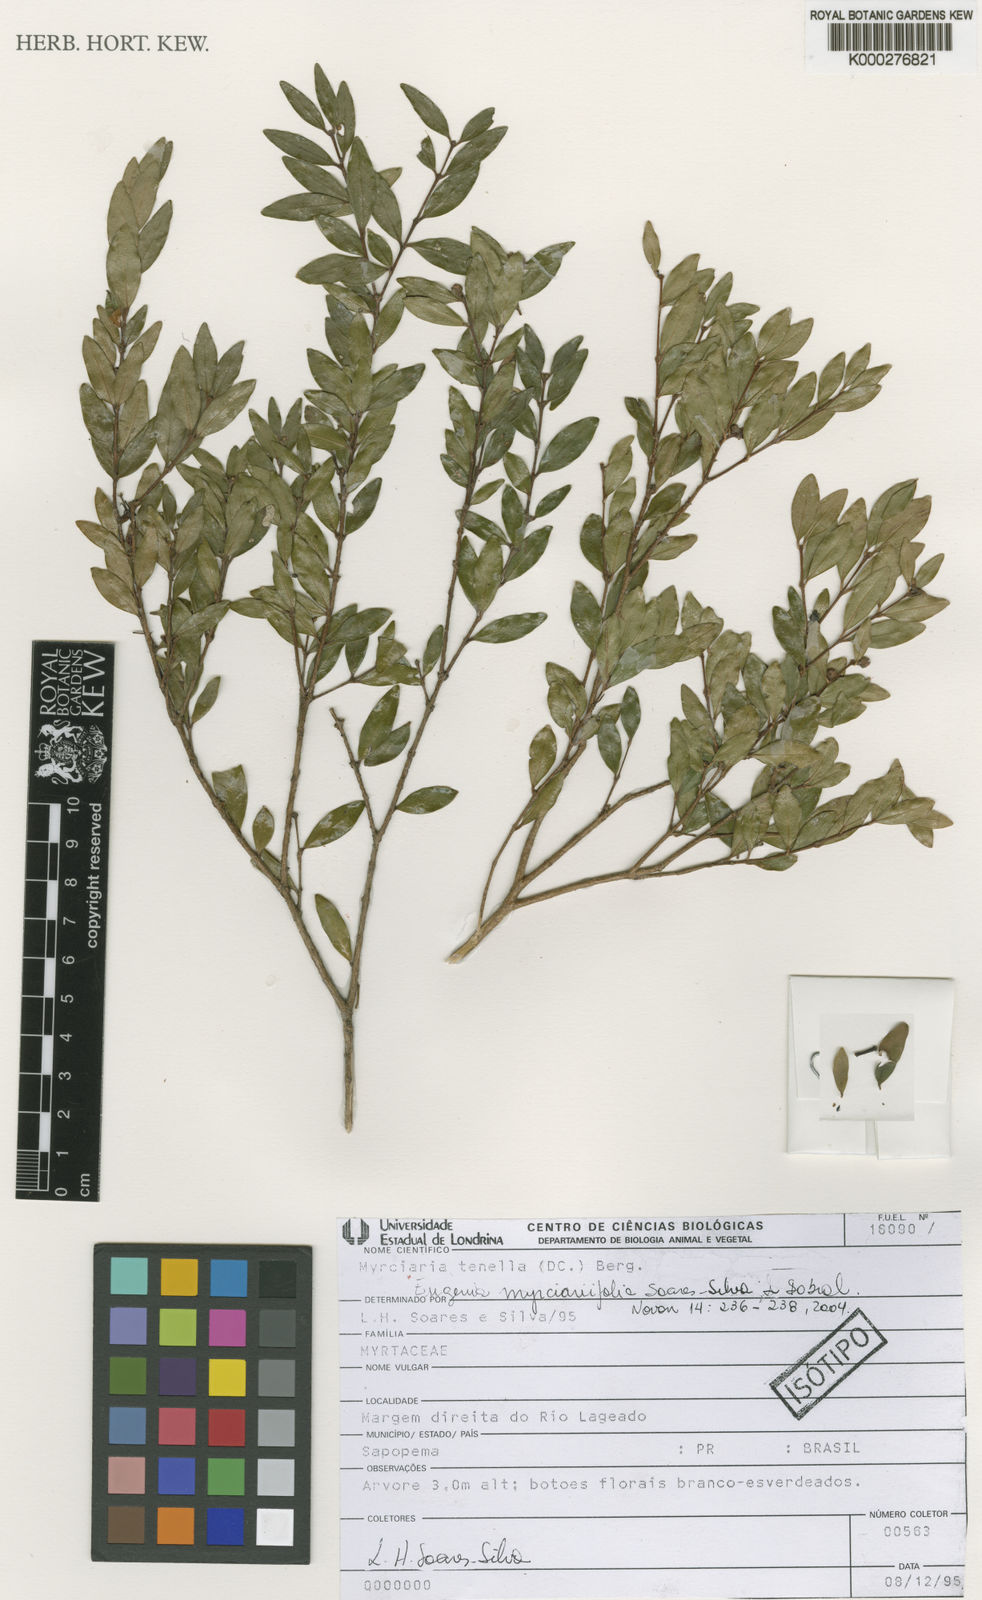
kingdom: Plantae
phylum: Tracheophyta
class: Magnoliopsida
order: Myrtales
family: Myrtaceae
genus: Eugenia
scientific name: Eugenia myrciariifolia
